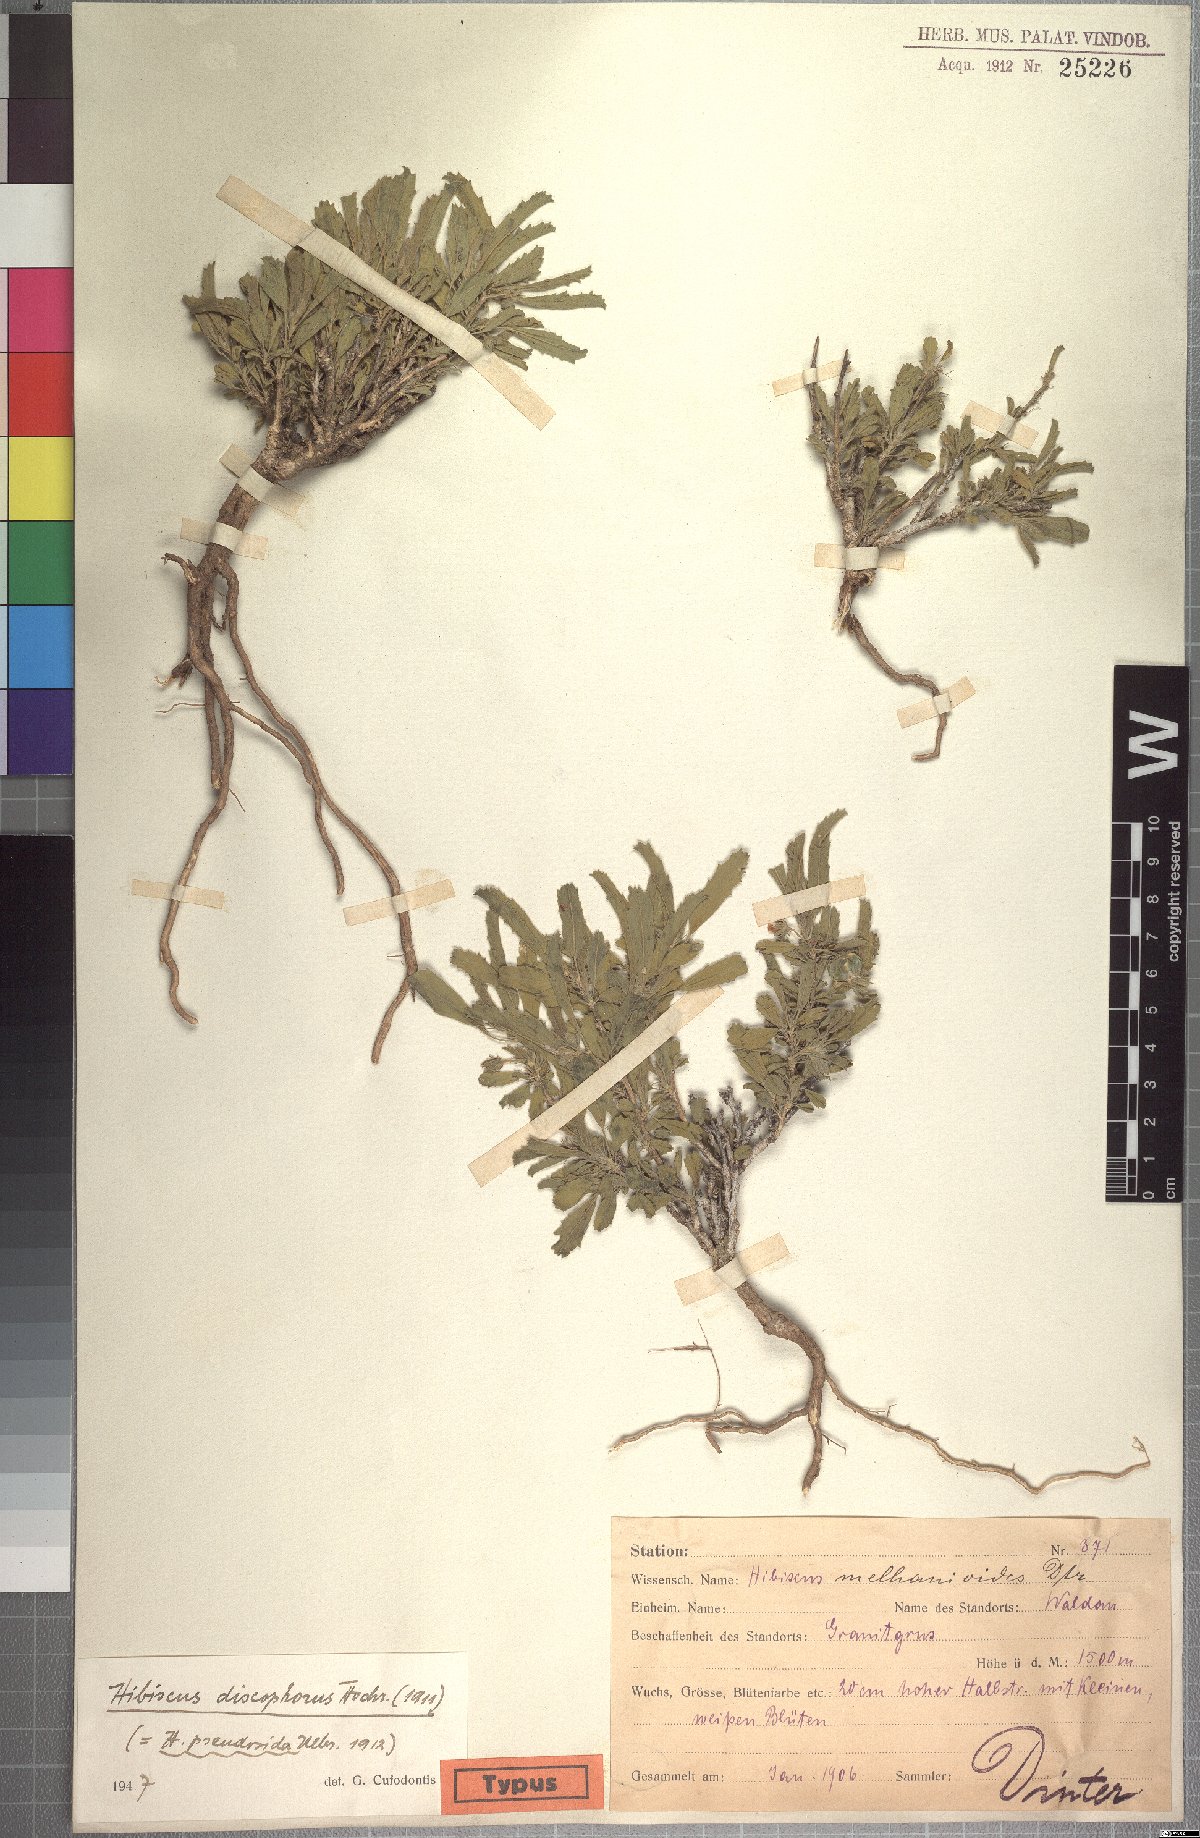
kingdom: Plantae
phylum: Tracheophyta
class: Magnoliopsida
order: Malvales
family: Malvaceae
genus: Hibiscus
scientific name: Hibiscus discophorus
